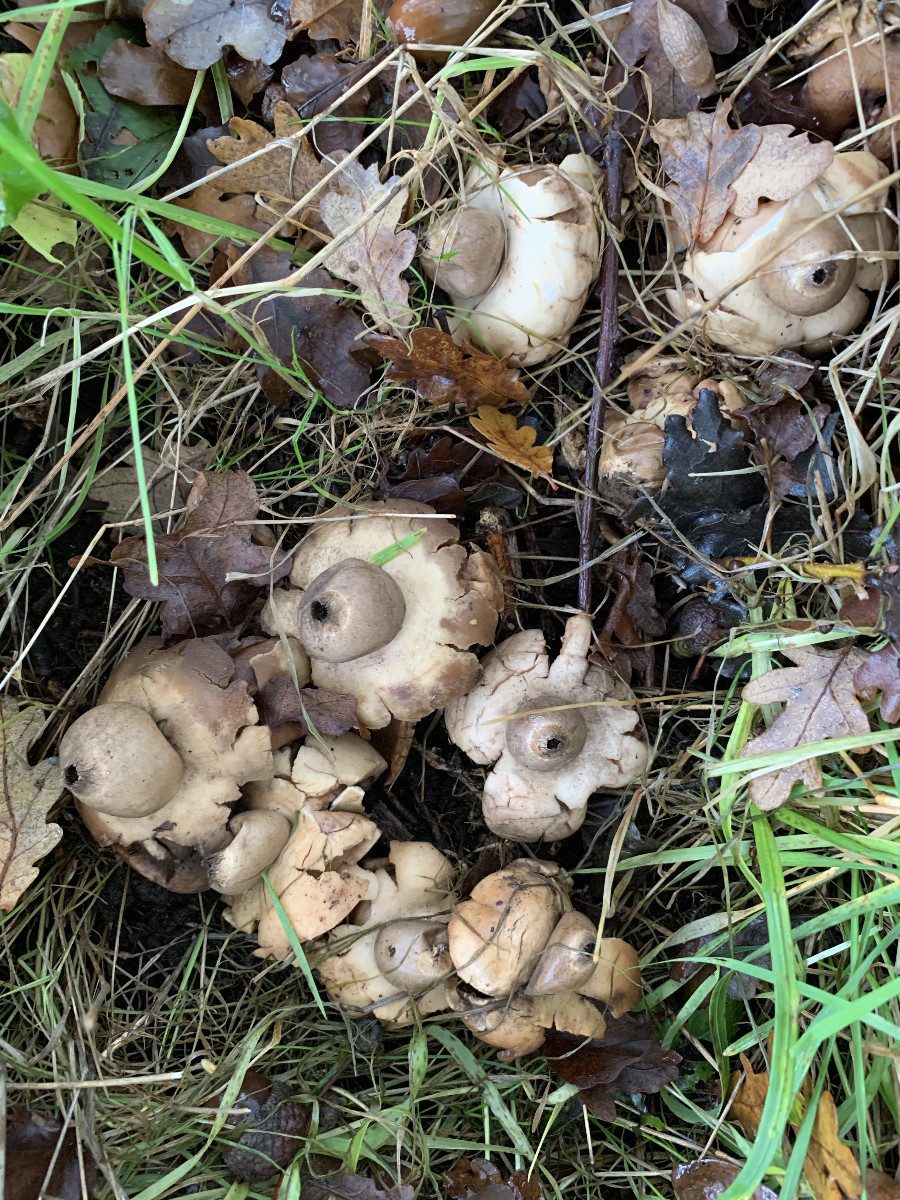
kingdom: Fungi
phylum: Basidiomycota
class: Agaricomycetes
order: Geastrales
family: Geastraceae
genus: Geastrum
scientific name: Geastrum michelianum
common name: kødet stjernebold
